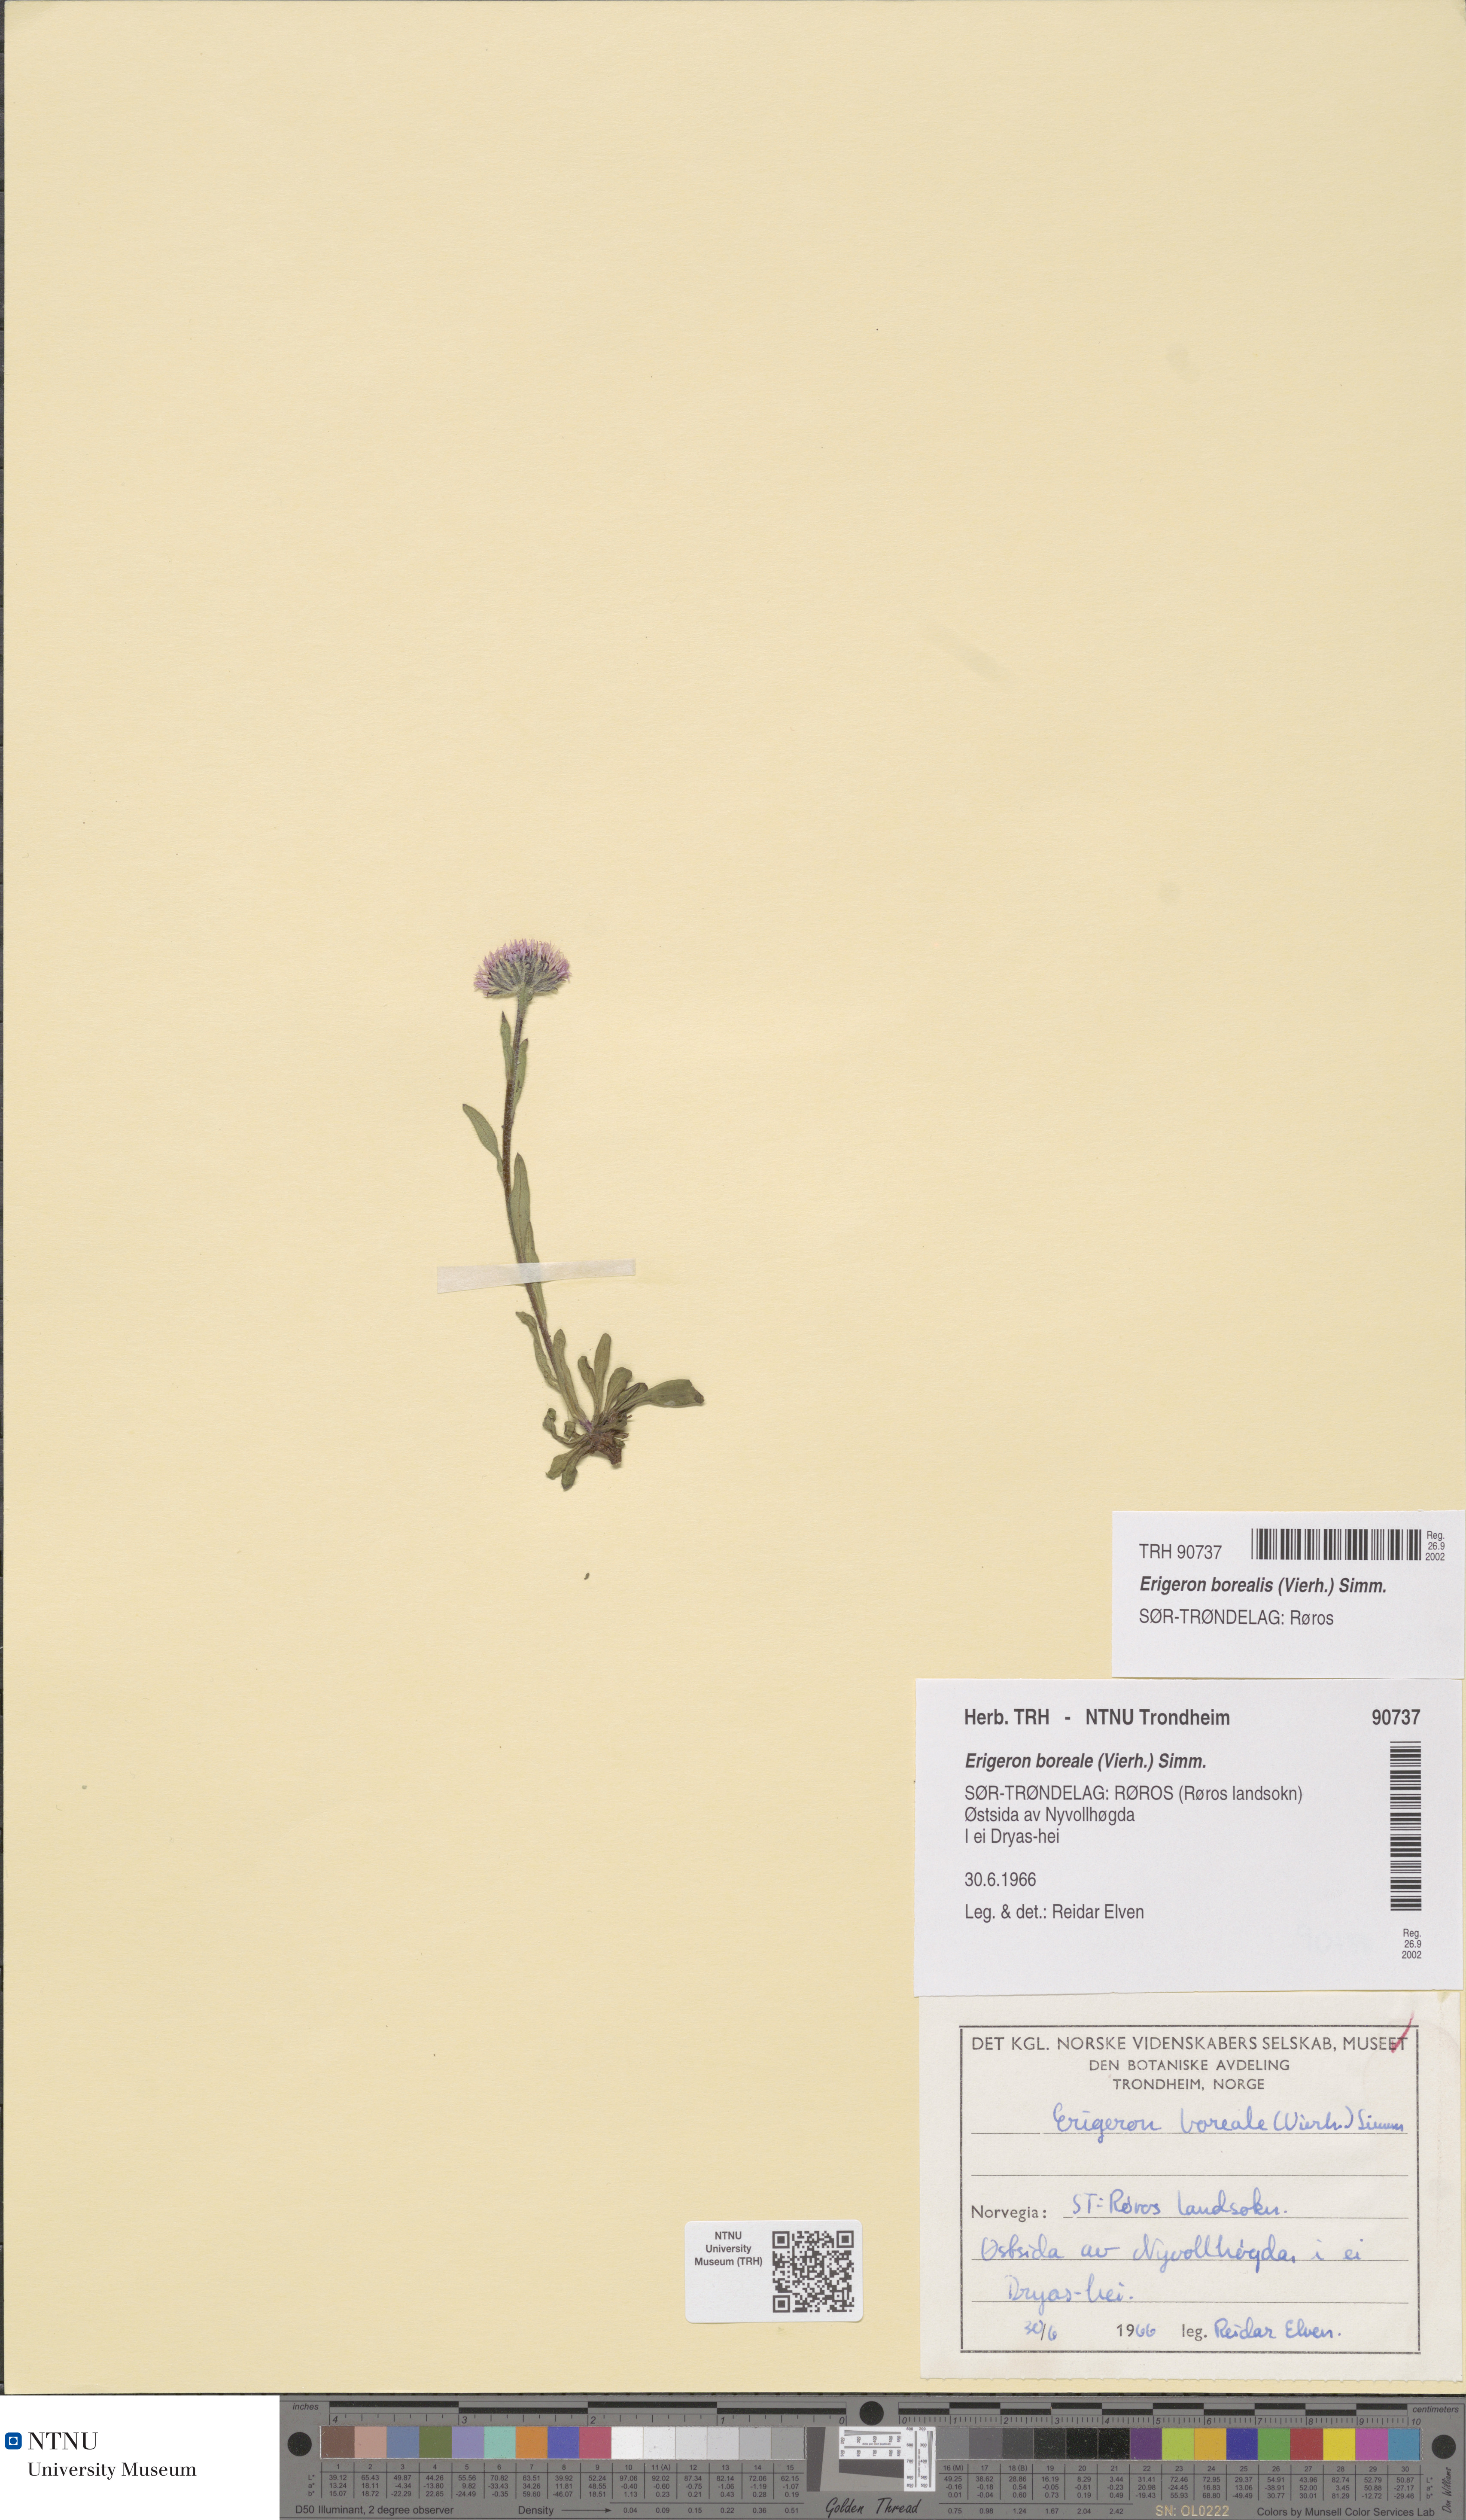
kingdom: Plantae
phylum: Tracheophyta
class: Magnoliopsida
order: Asterales
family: Asteraceae
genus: Erigeron
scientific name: Erigeron borealis
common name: Alpine fleabane
